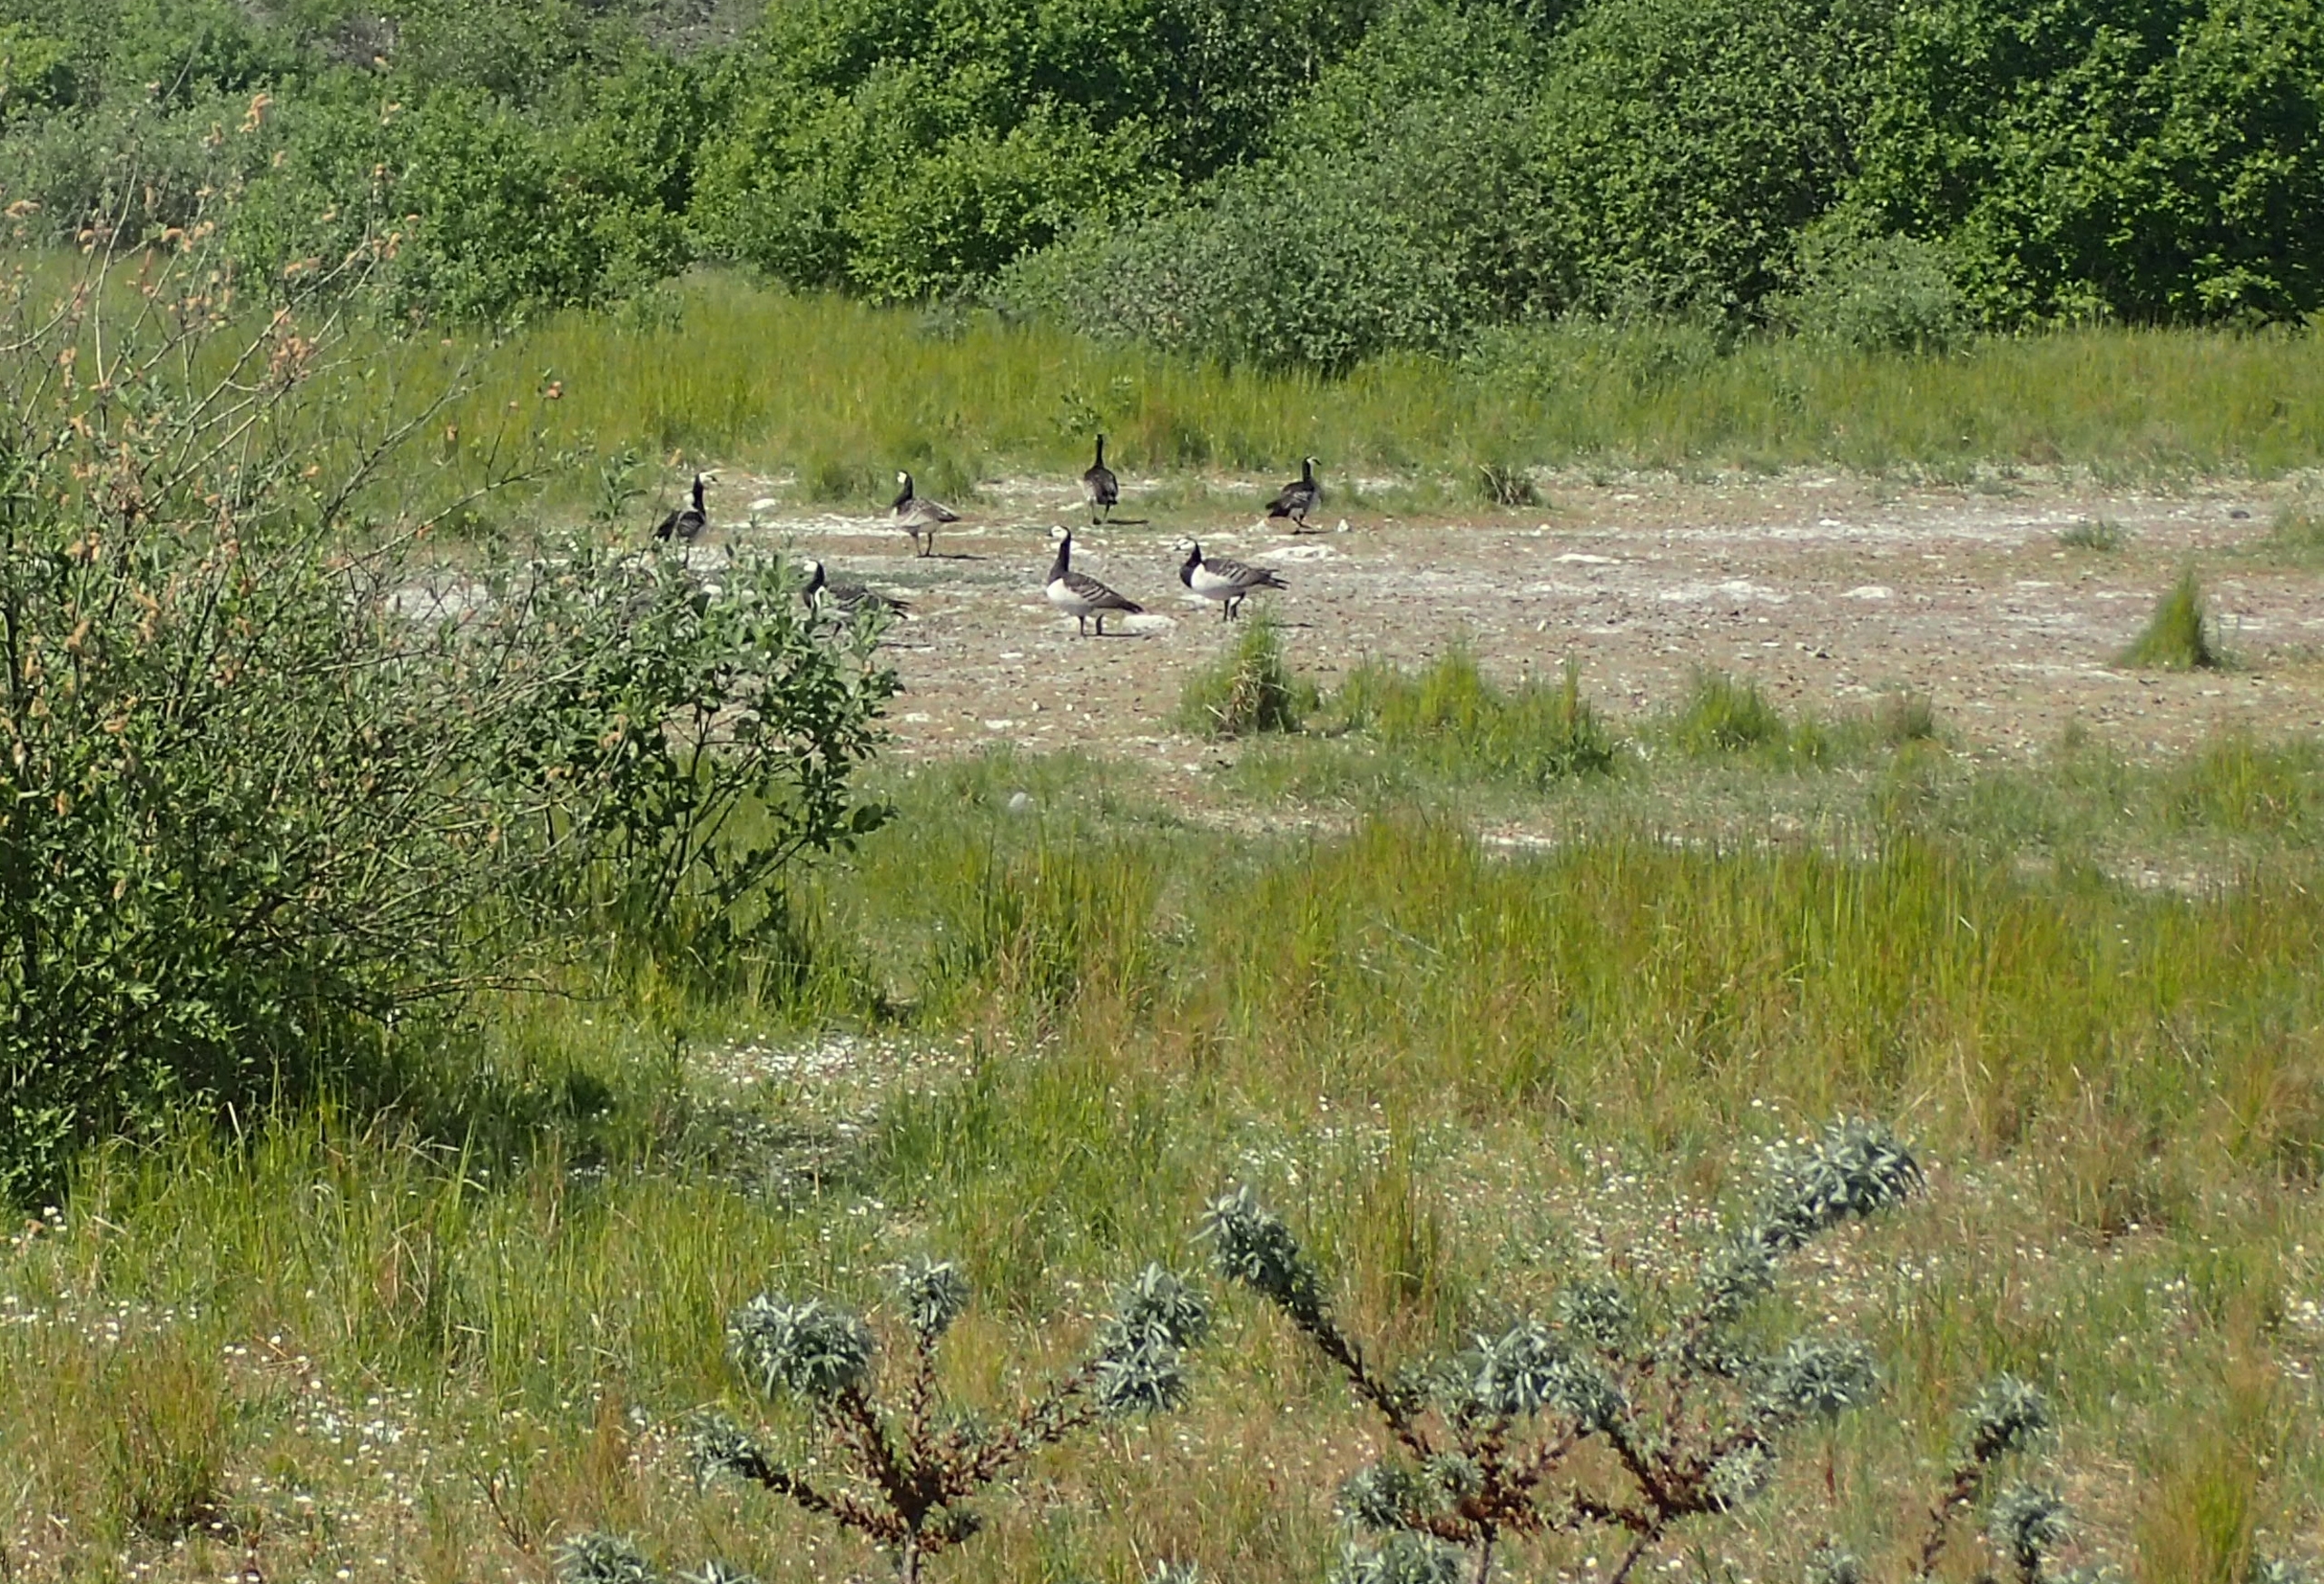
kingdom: Animalia
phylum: Chordata
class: Aves
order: Anseriformes
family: Anatidae
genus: Branta
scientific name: Branta leucopsis
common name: Bramgås
